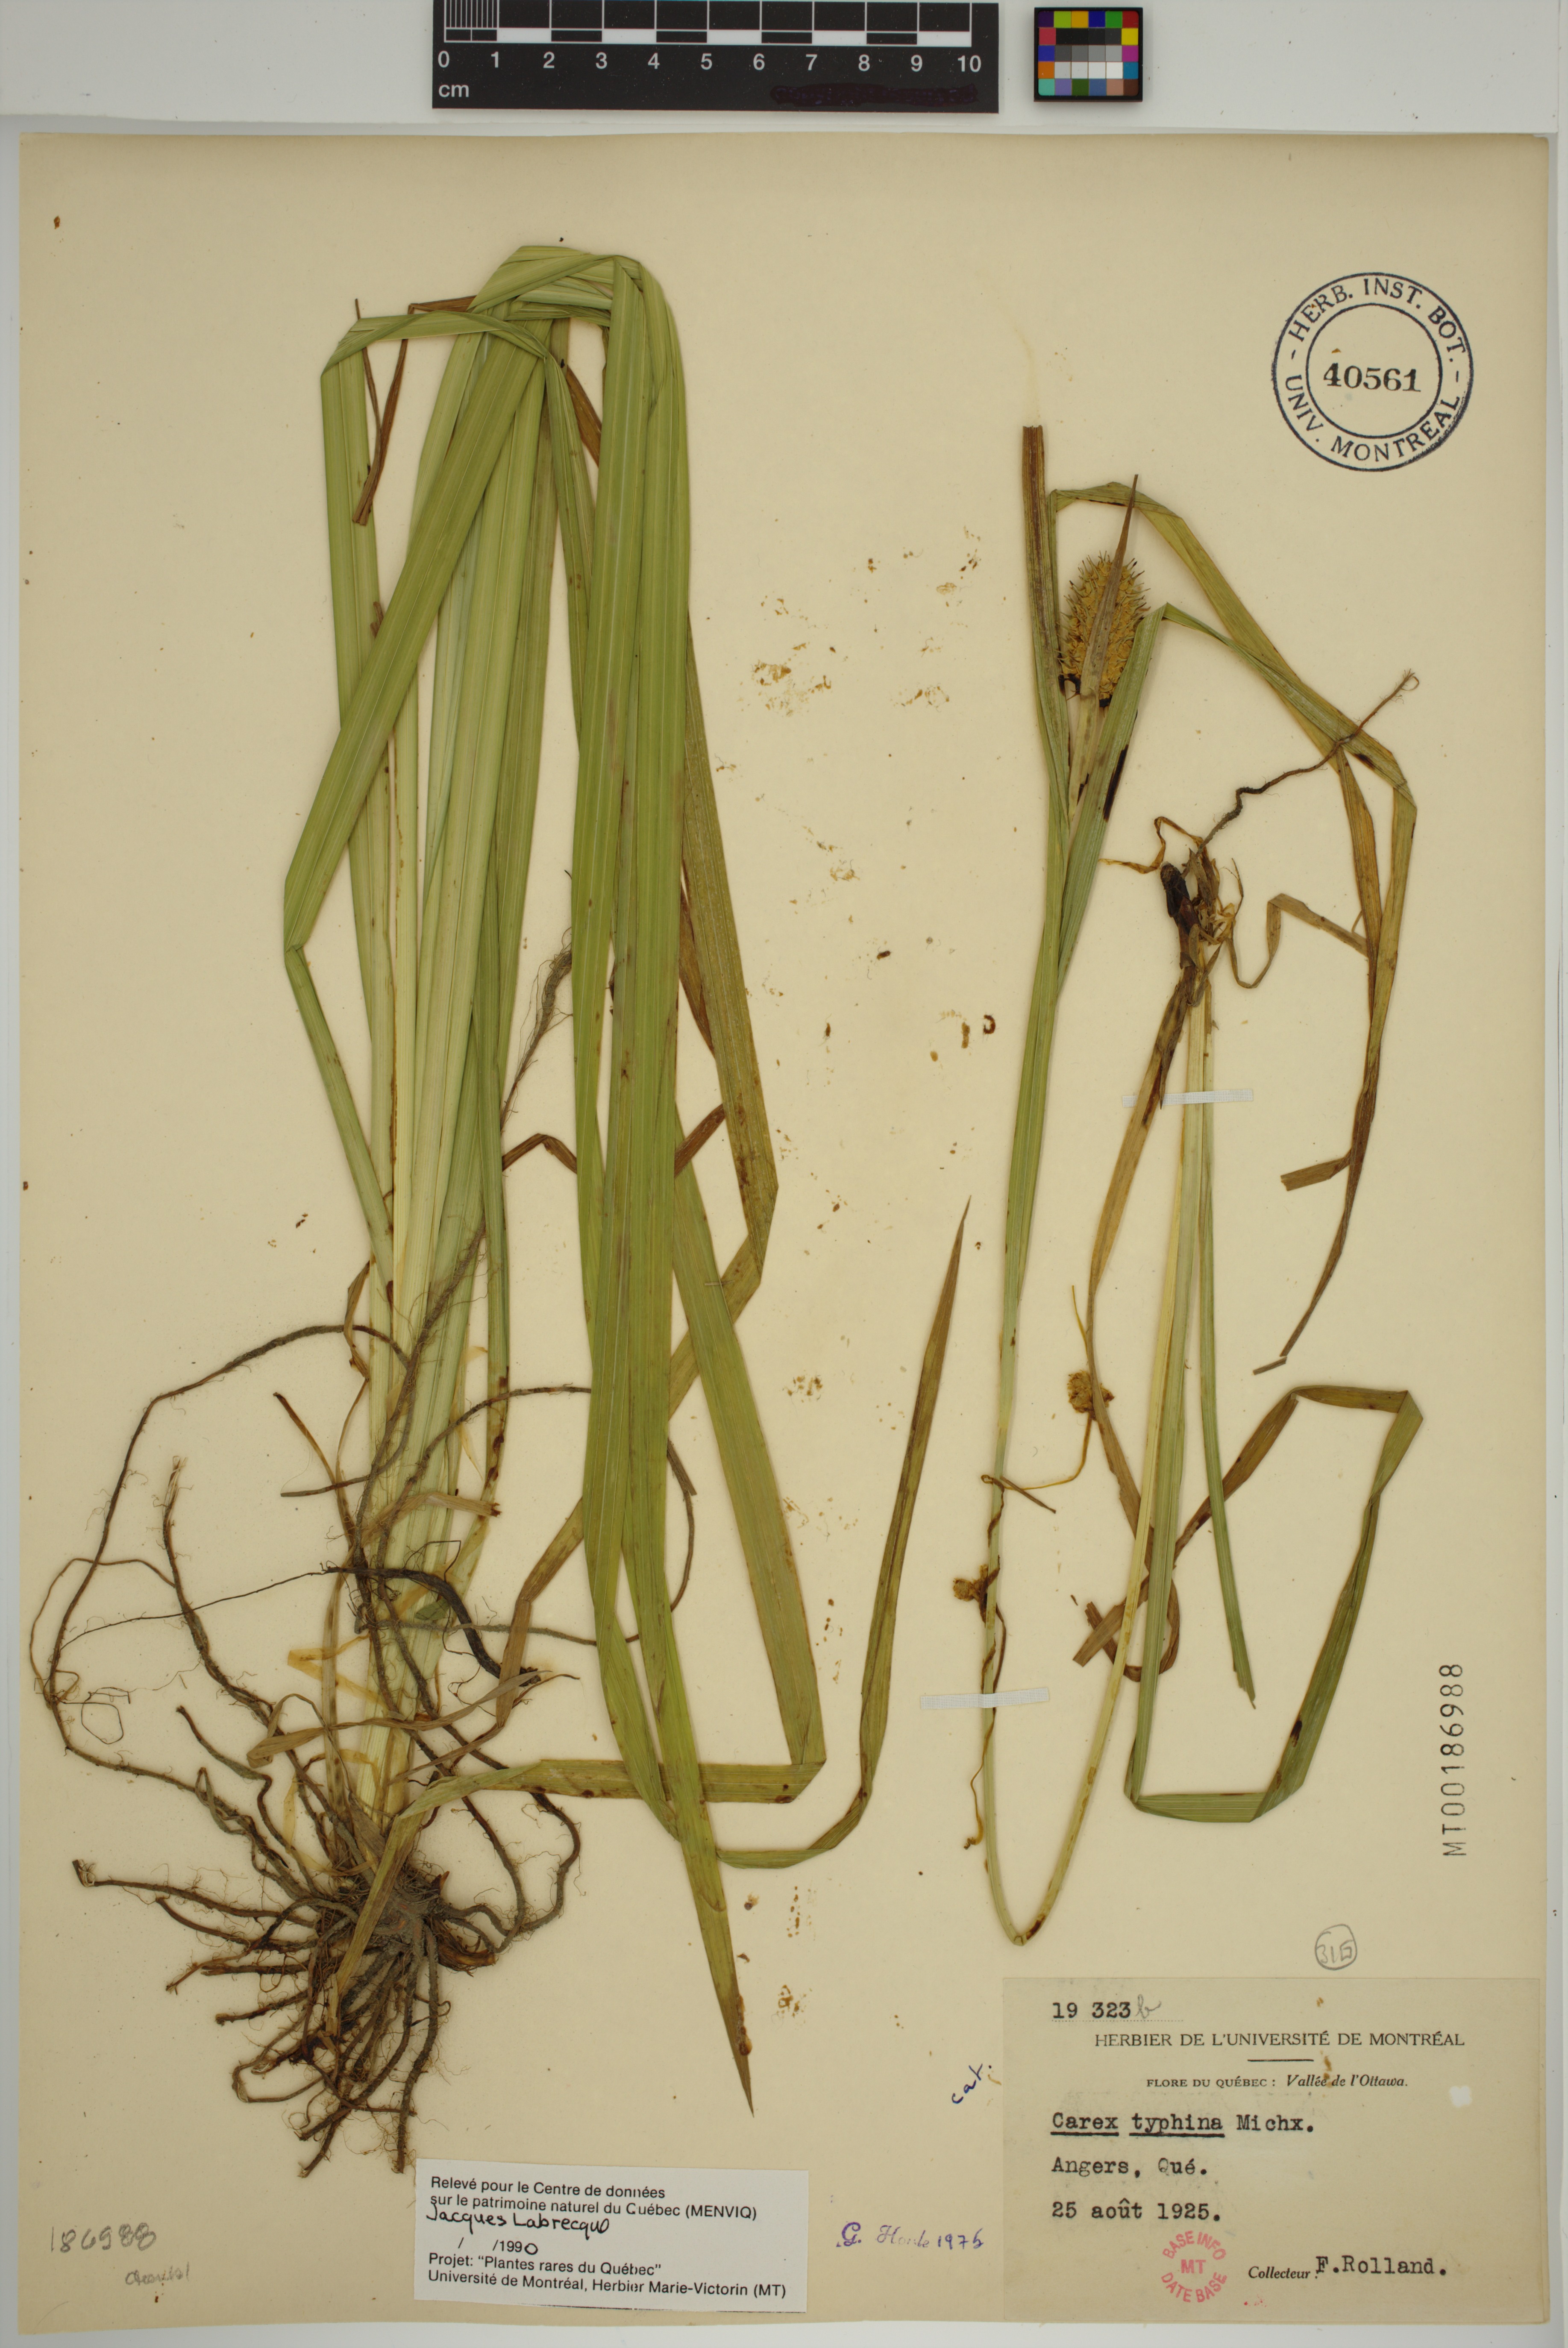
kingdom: Plantae
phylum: Tracheophyta
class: Liliopsida
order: Poales
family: Cyperaceae
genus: Carex
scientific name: Carex typhina
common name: Cattail sedge
